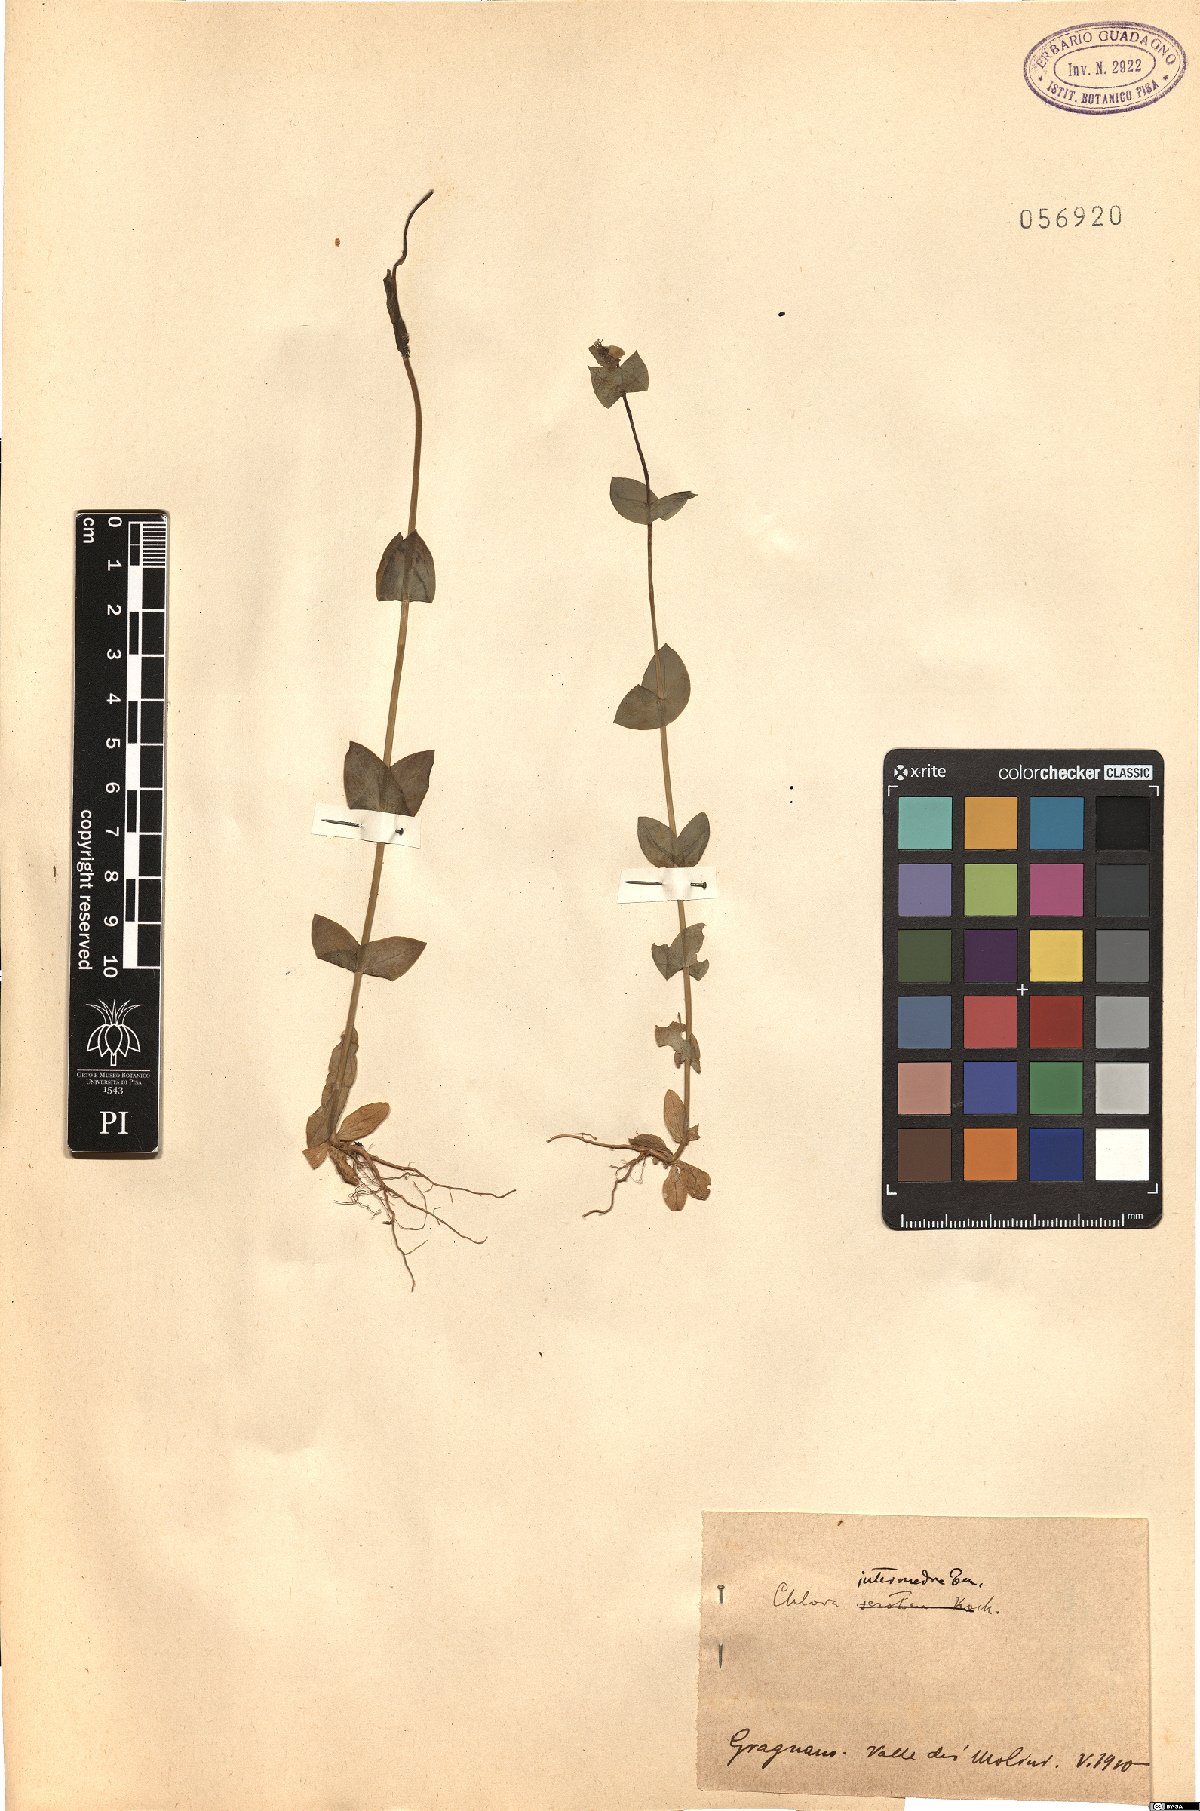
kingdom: Plantae
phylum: Tracheophyta
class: Magnoliopsida
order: Gentianales
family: Gentianaceae
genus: Blackstonia
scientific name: Blackstonia perfoliata
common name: Yellow-wort
